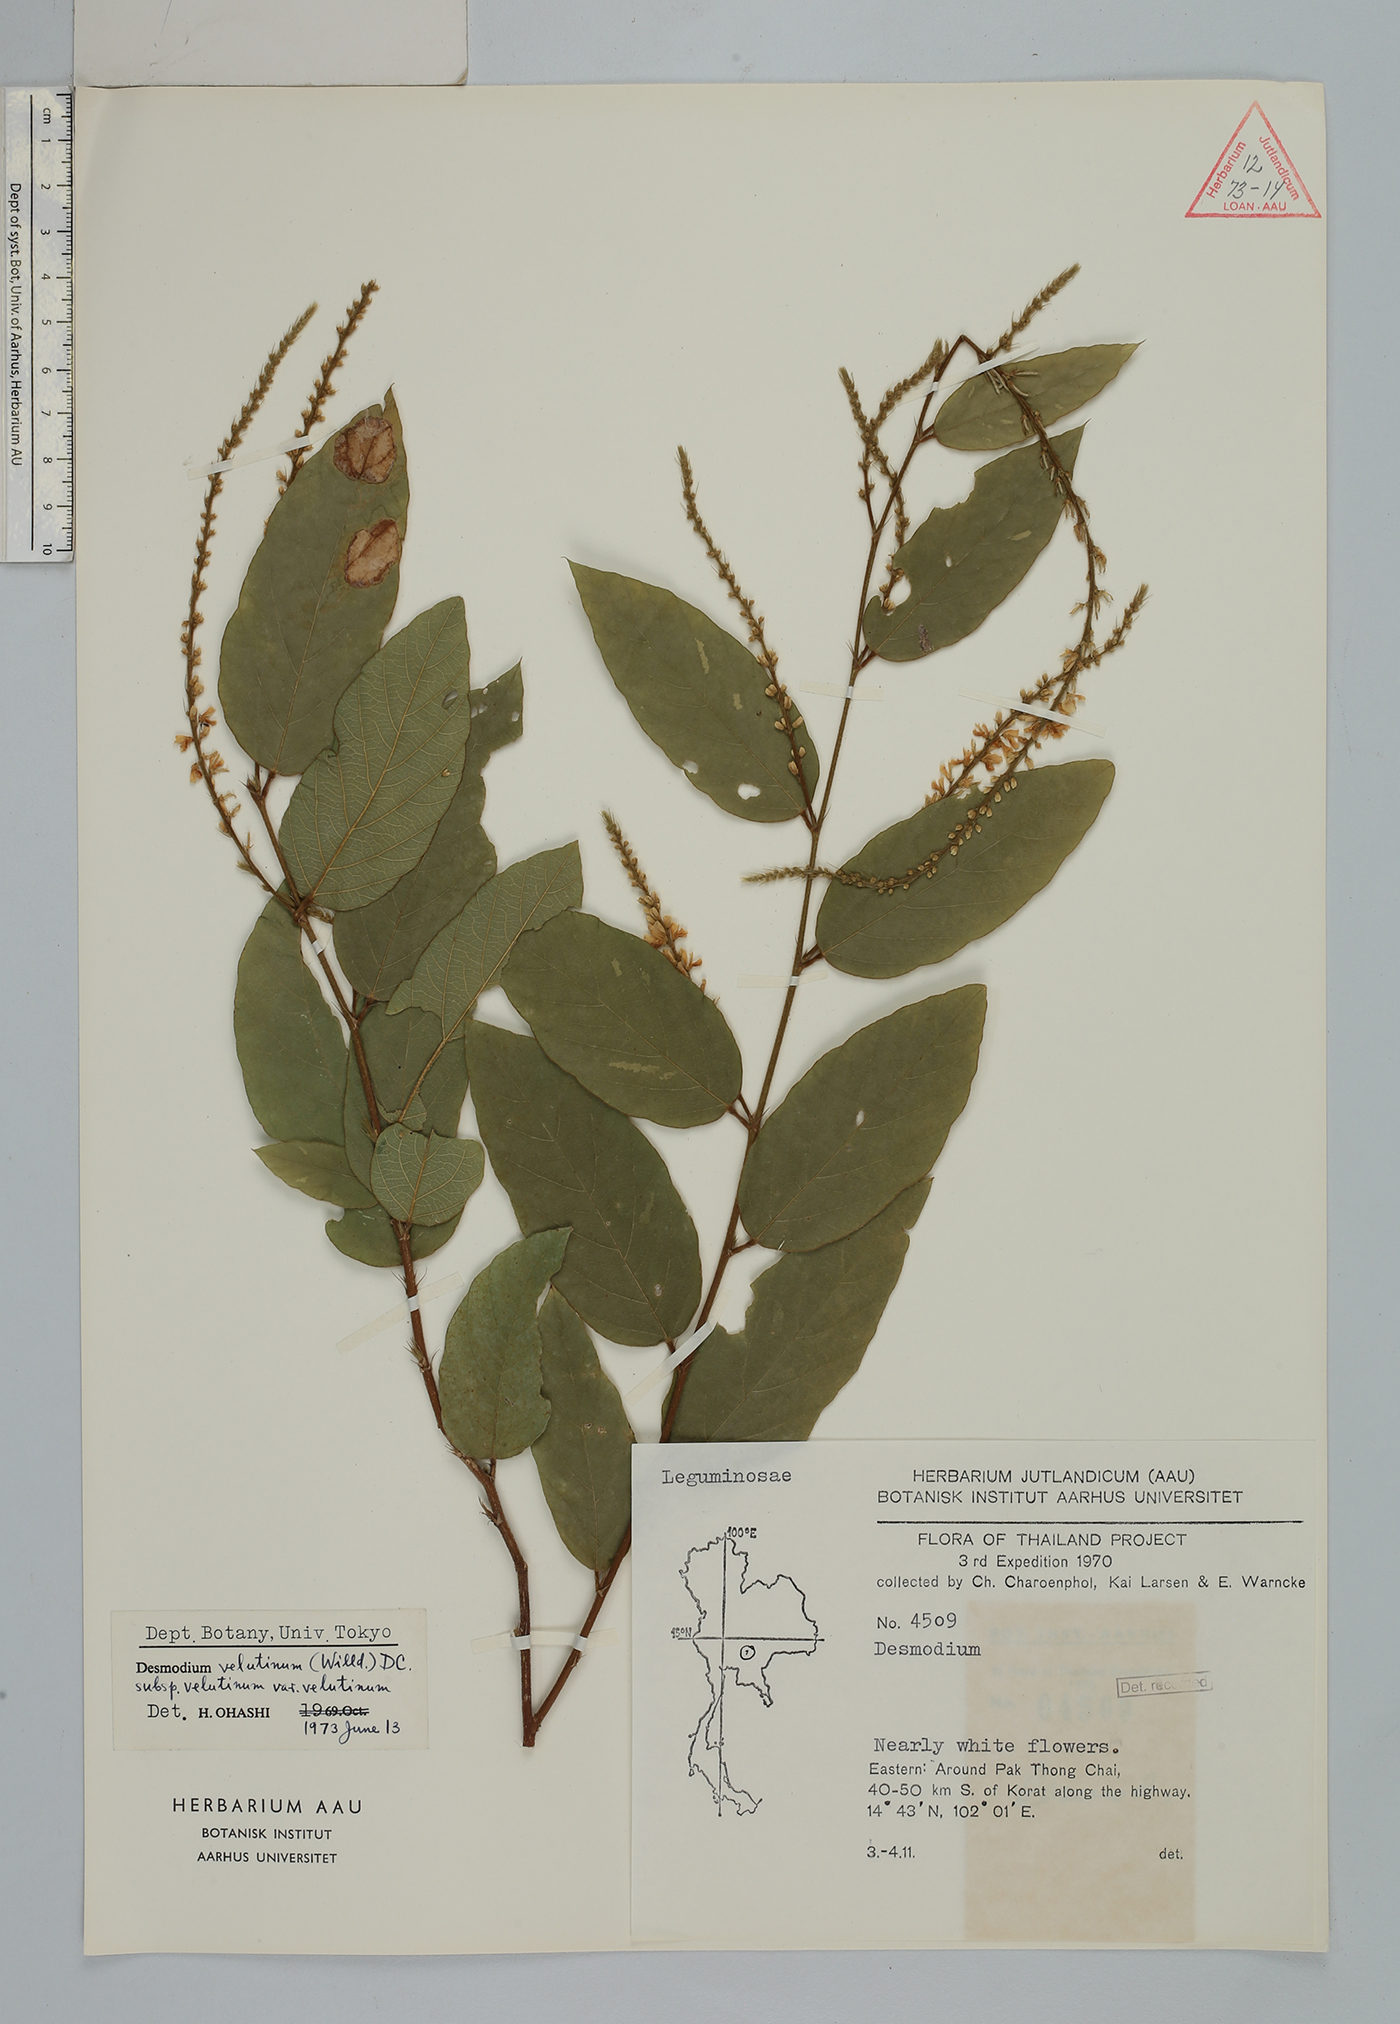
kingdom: Plantae
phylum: Tracheophyta
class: Magnoliopsida
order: Fabales
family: Fabaceae
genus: Desmodium
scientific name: Desmodium
